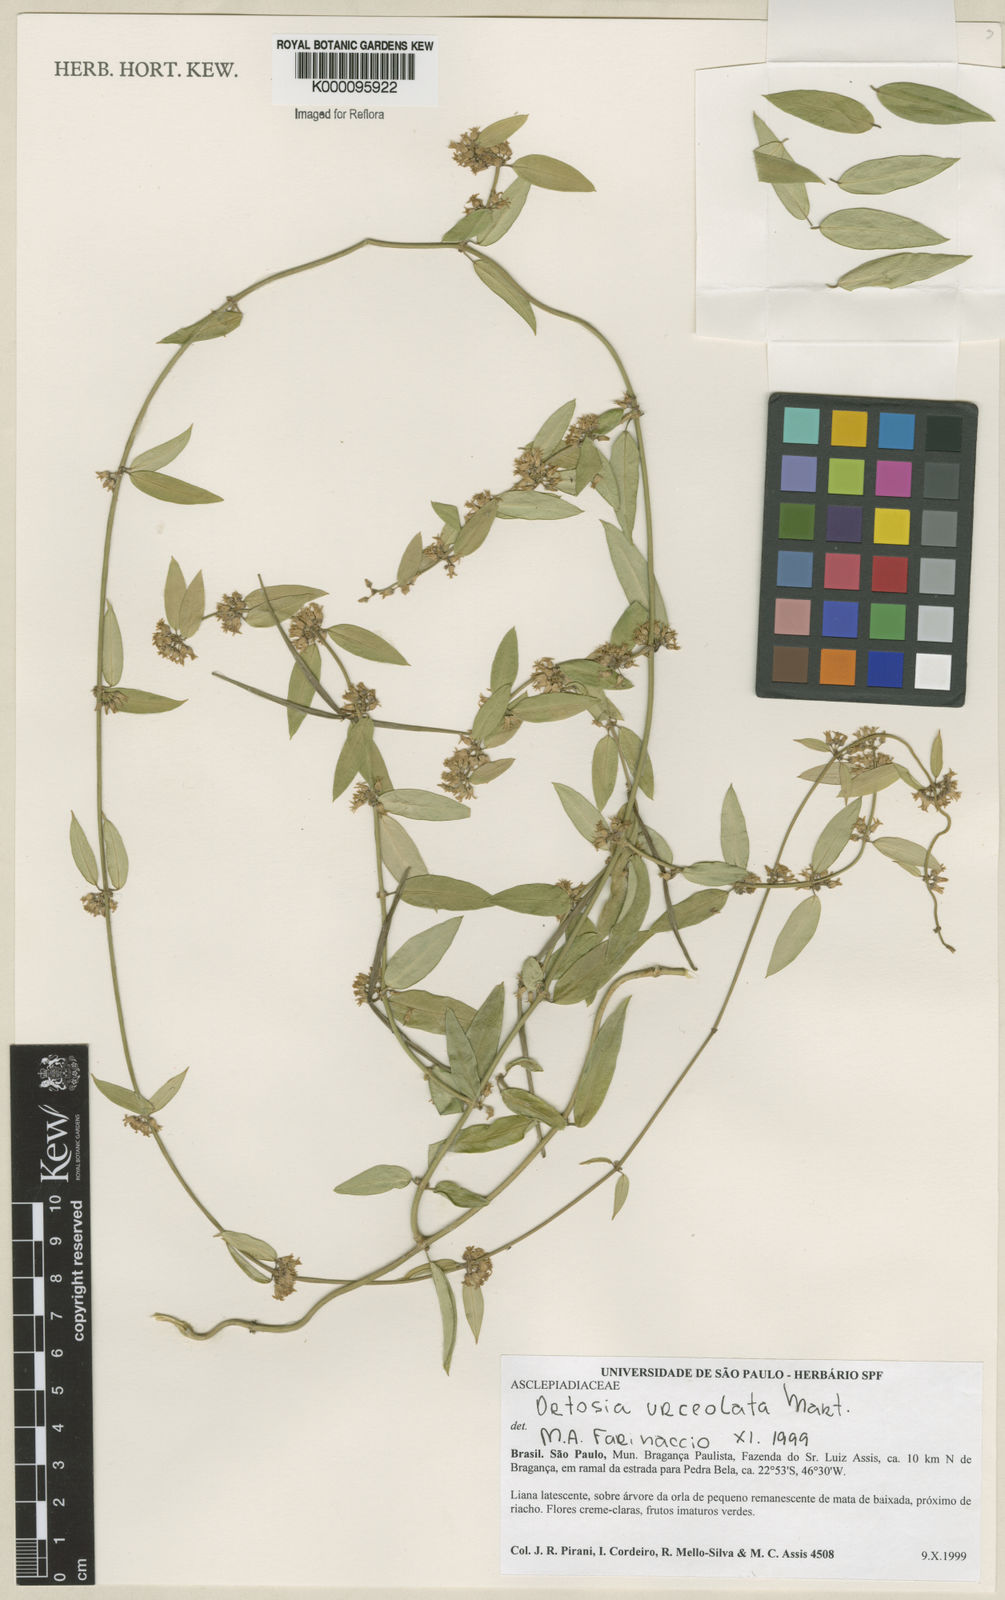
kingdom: Plantae
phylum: Tracheophyta
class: Magnoliopsida
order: Gentianales
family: Apocynaceae
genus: Orthosia
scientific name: Orthosia urceolata
